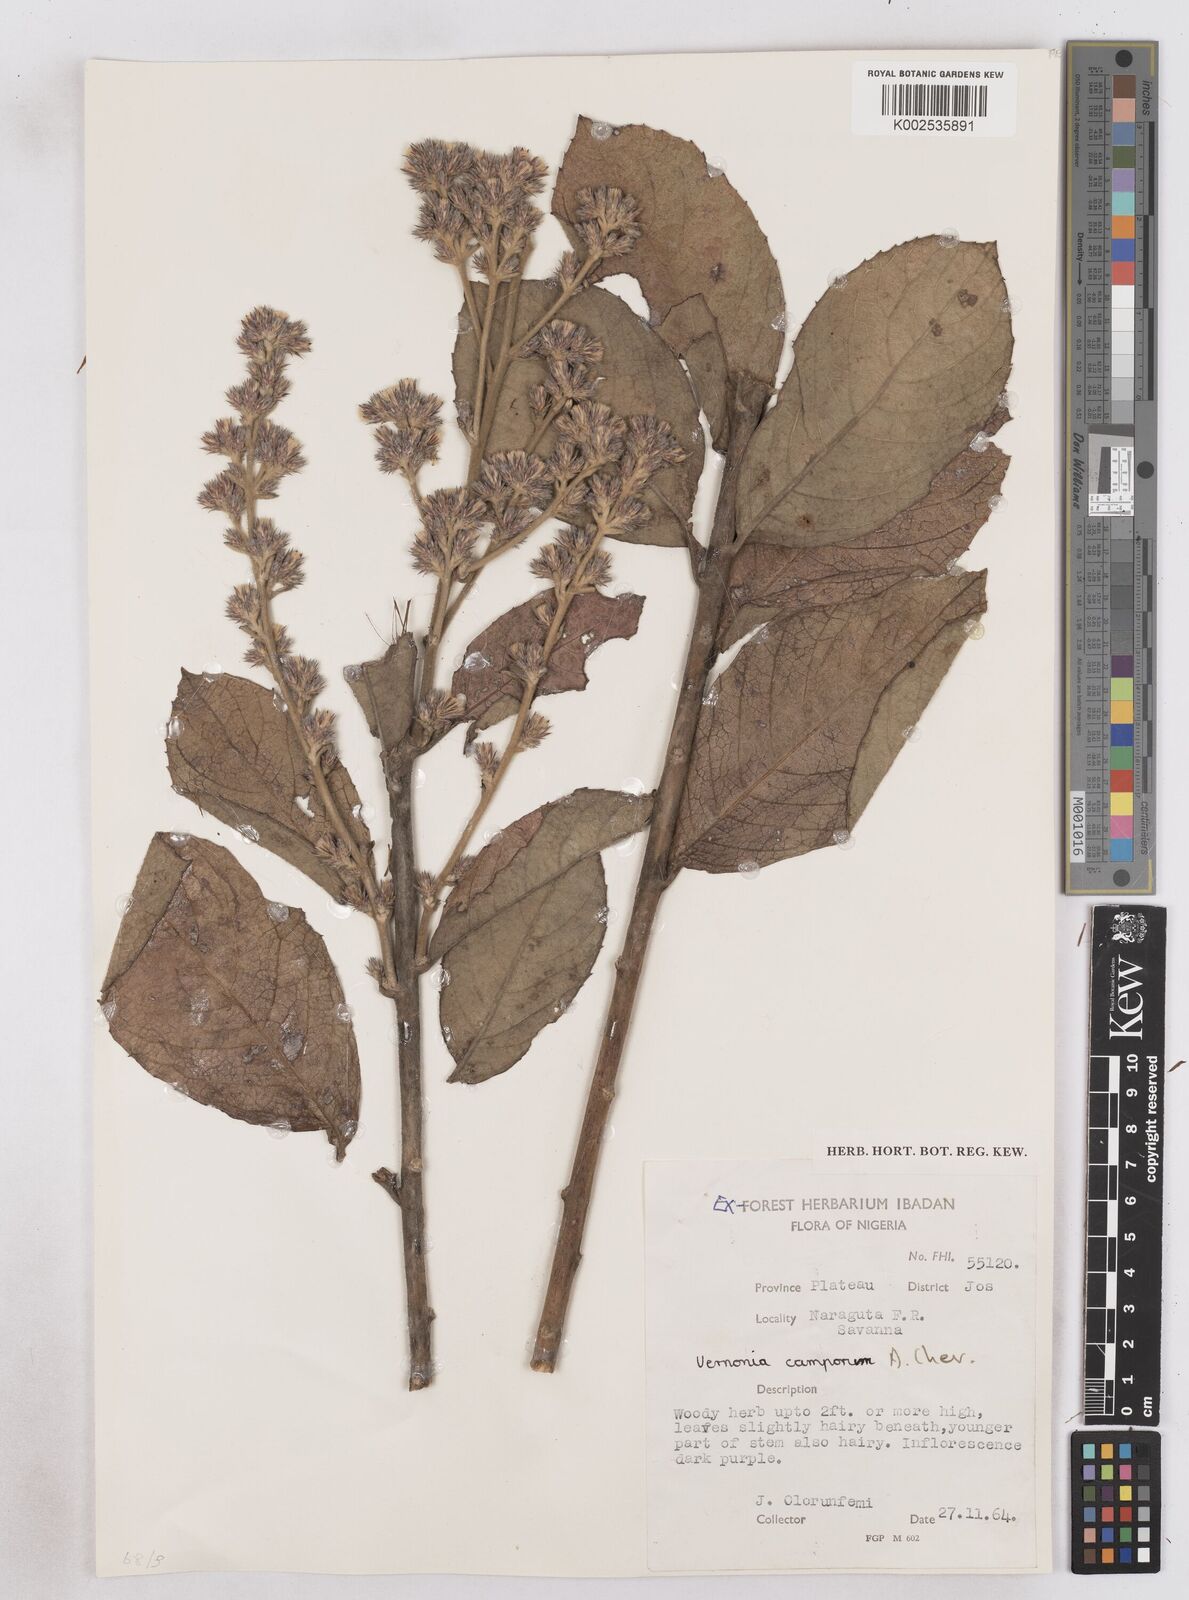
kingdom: Plantae
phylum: Tracheophyta
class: Magnoliopsida
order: Asterales
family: Asteraceae
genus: Vernoniastrum
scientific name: Vernoniastrum camporum
